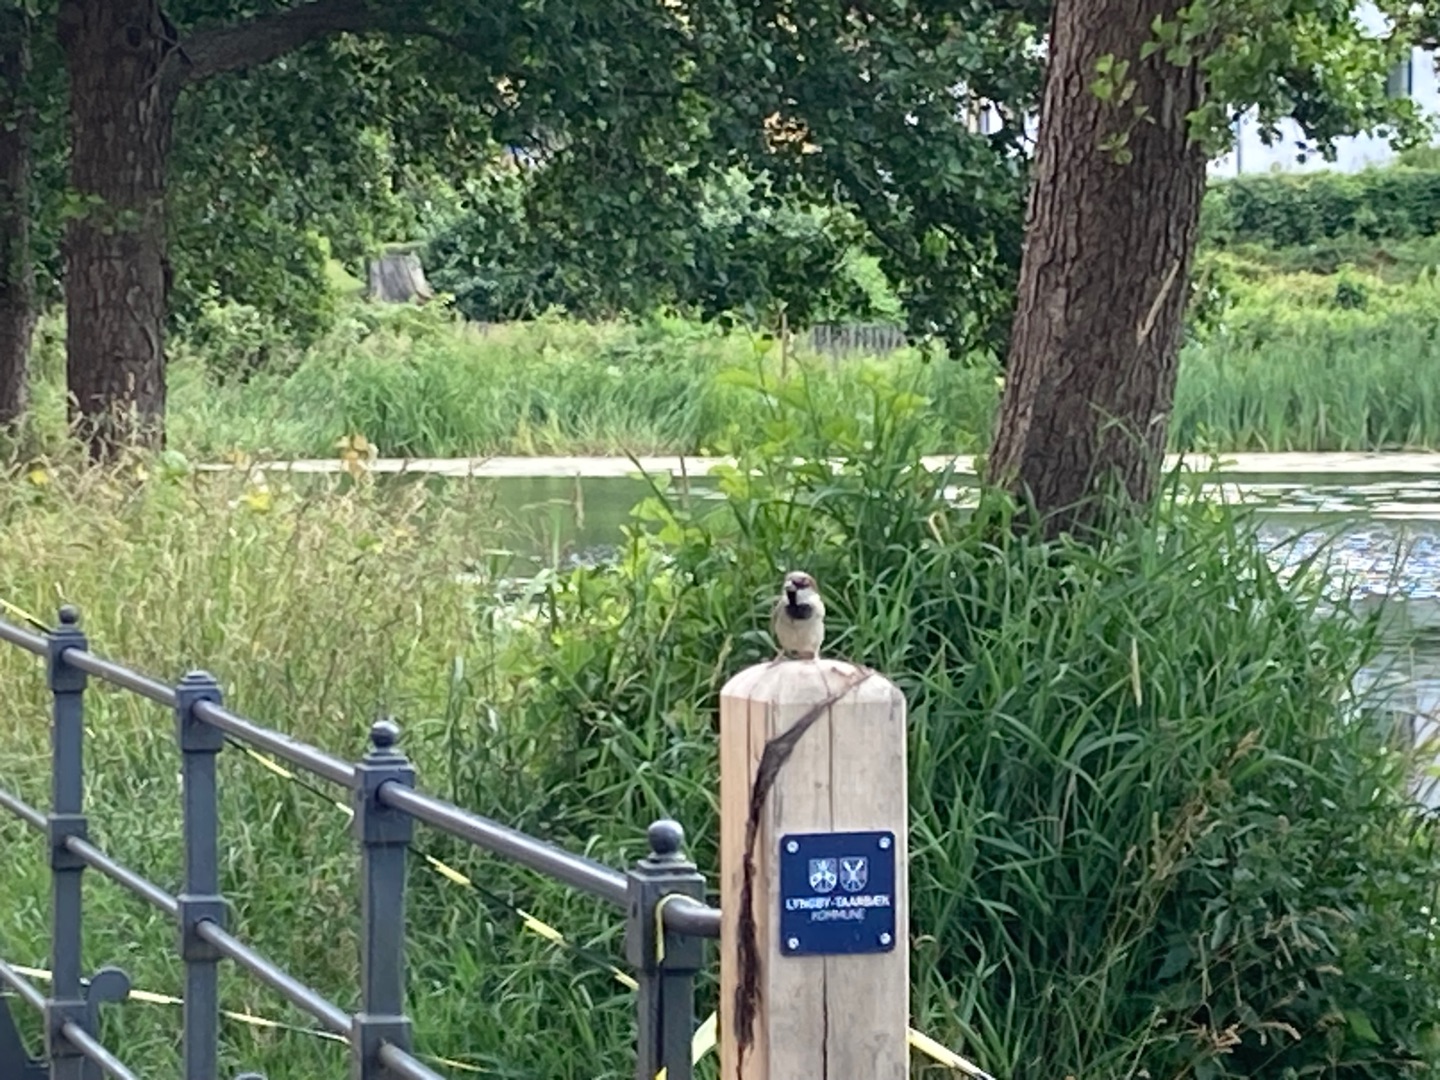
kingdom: Animalia
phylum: Chordata
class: Aves
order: Passeriformes
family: Passeridae
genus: Passer
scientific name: Passer domesticus
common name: Gråspurv
